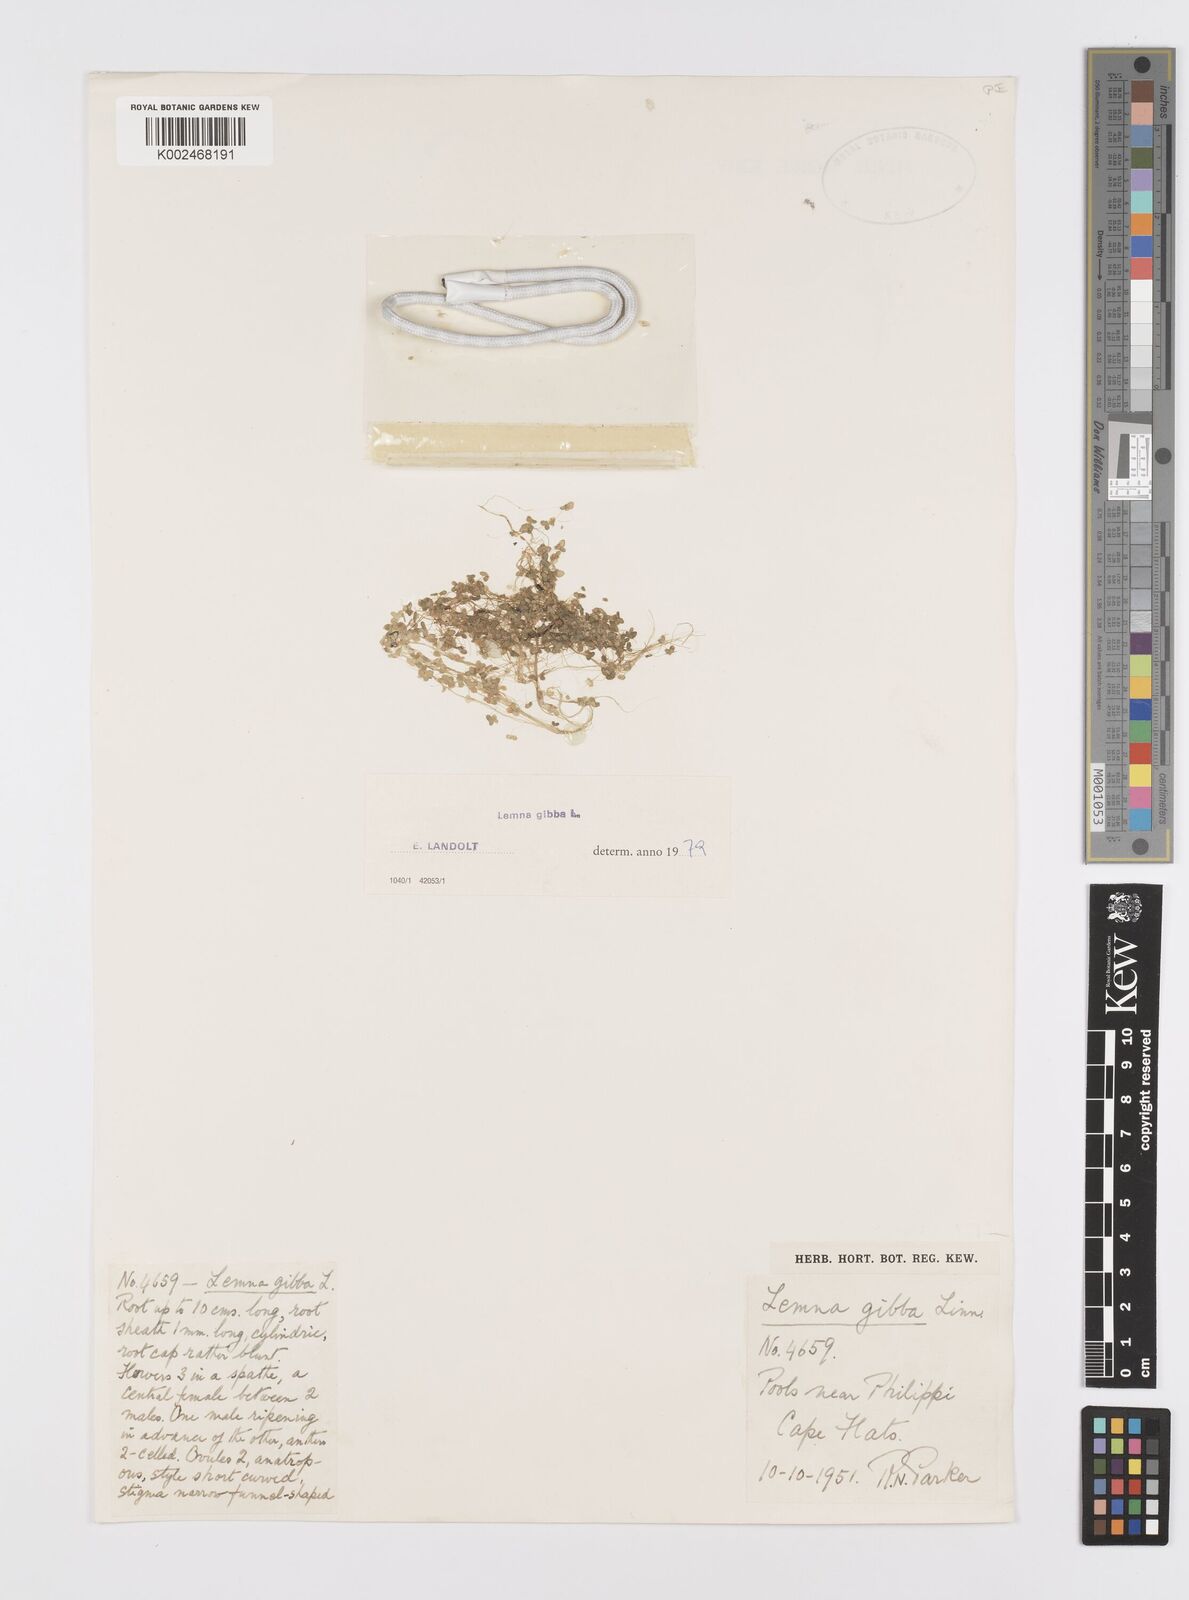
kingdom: Plantae
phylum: Tracheophyta
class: Liliopsida
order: Alismatales
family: Araceae
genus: Lemna
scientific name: Lemna gibba
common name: Fat duckweed
